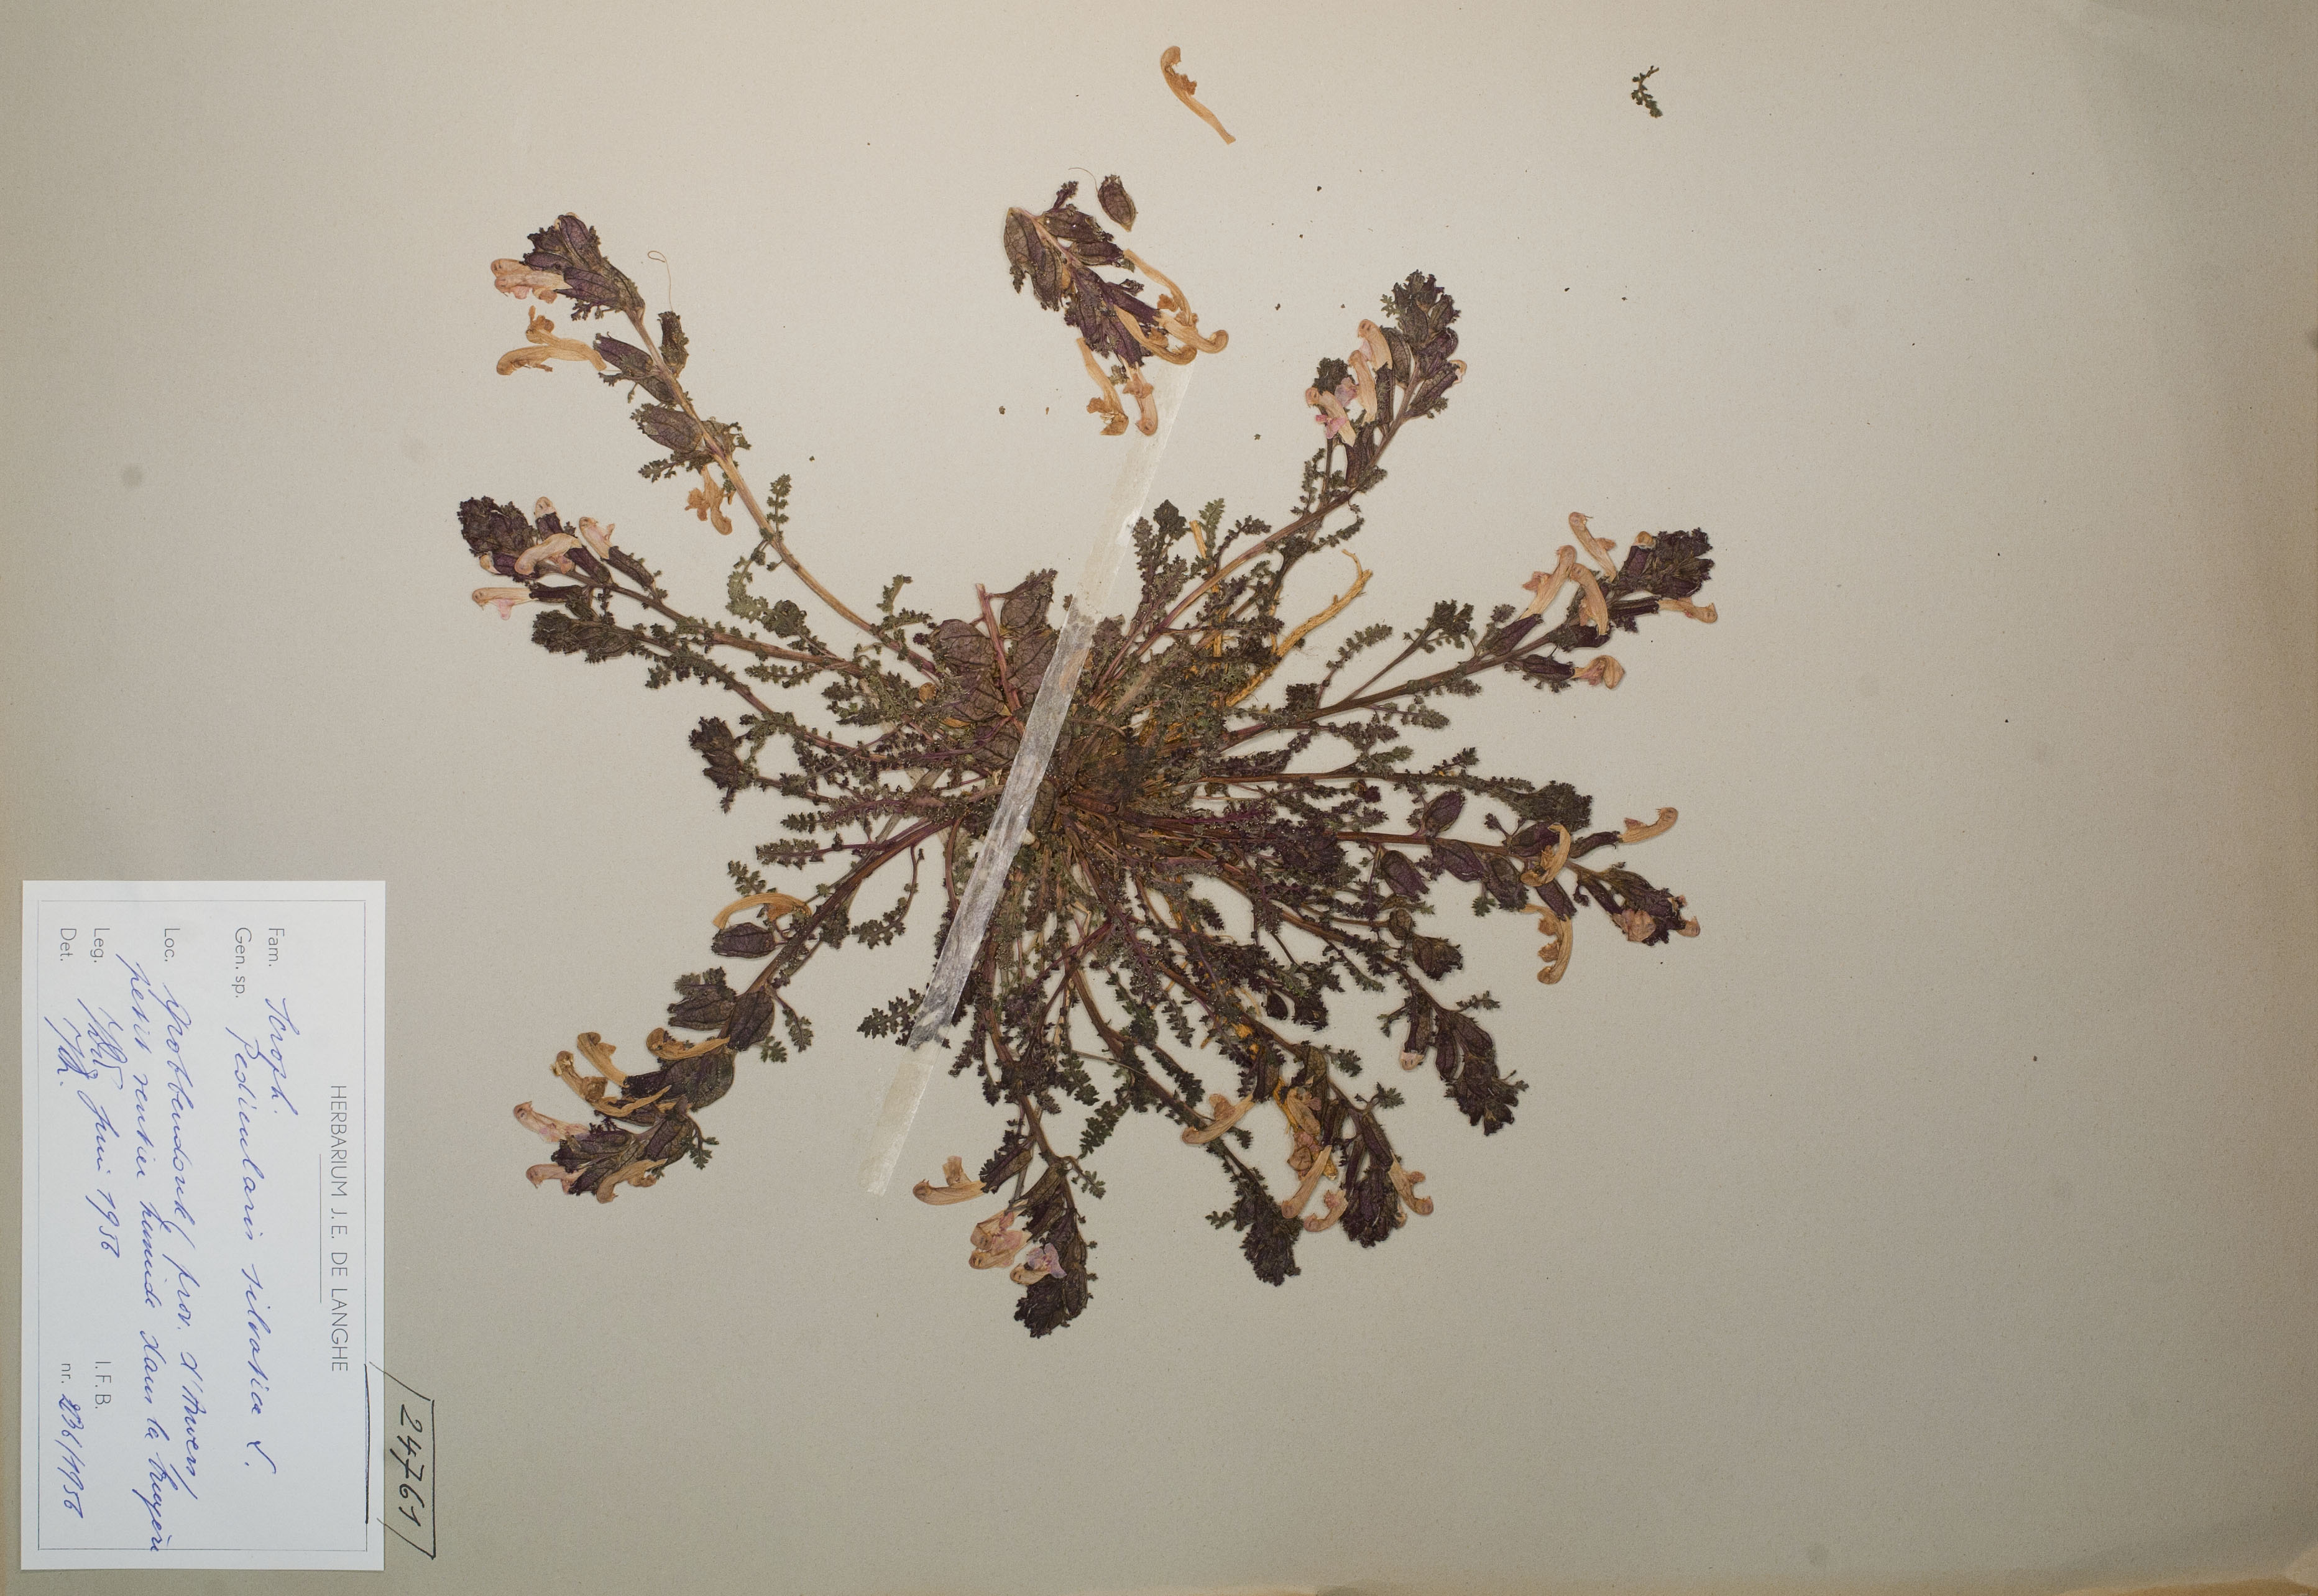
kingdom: Plantae
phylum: Tracheophyta
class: Magnoliopsida
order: Lamiales
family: Orobanchaceae
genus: Pedicularis
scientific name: Pedicularis sylvatica
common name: Lousewort
